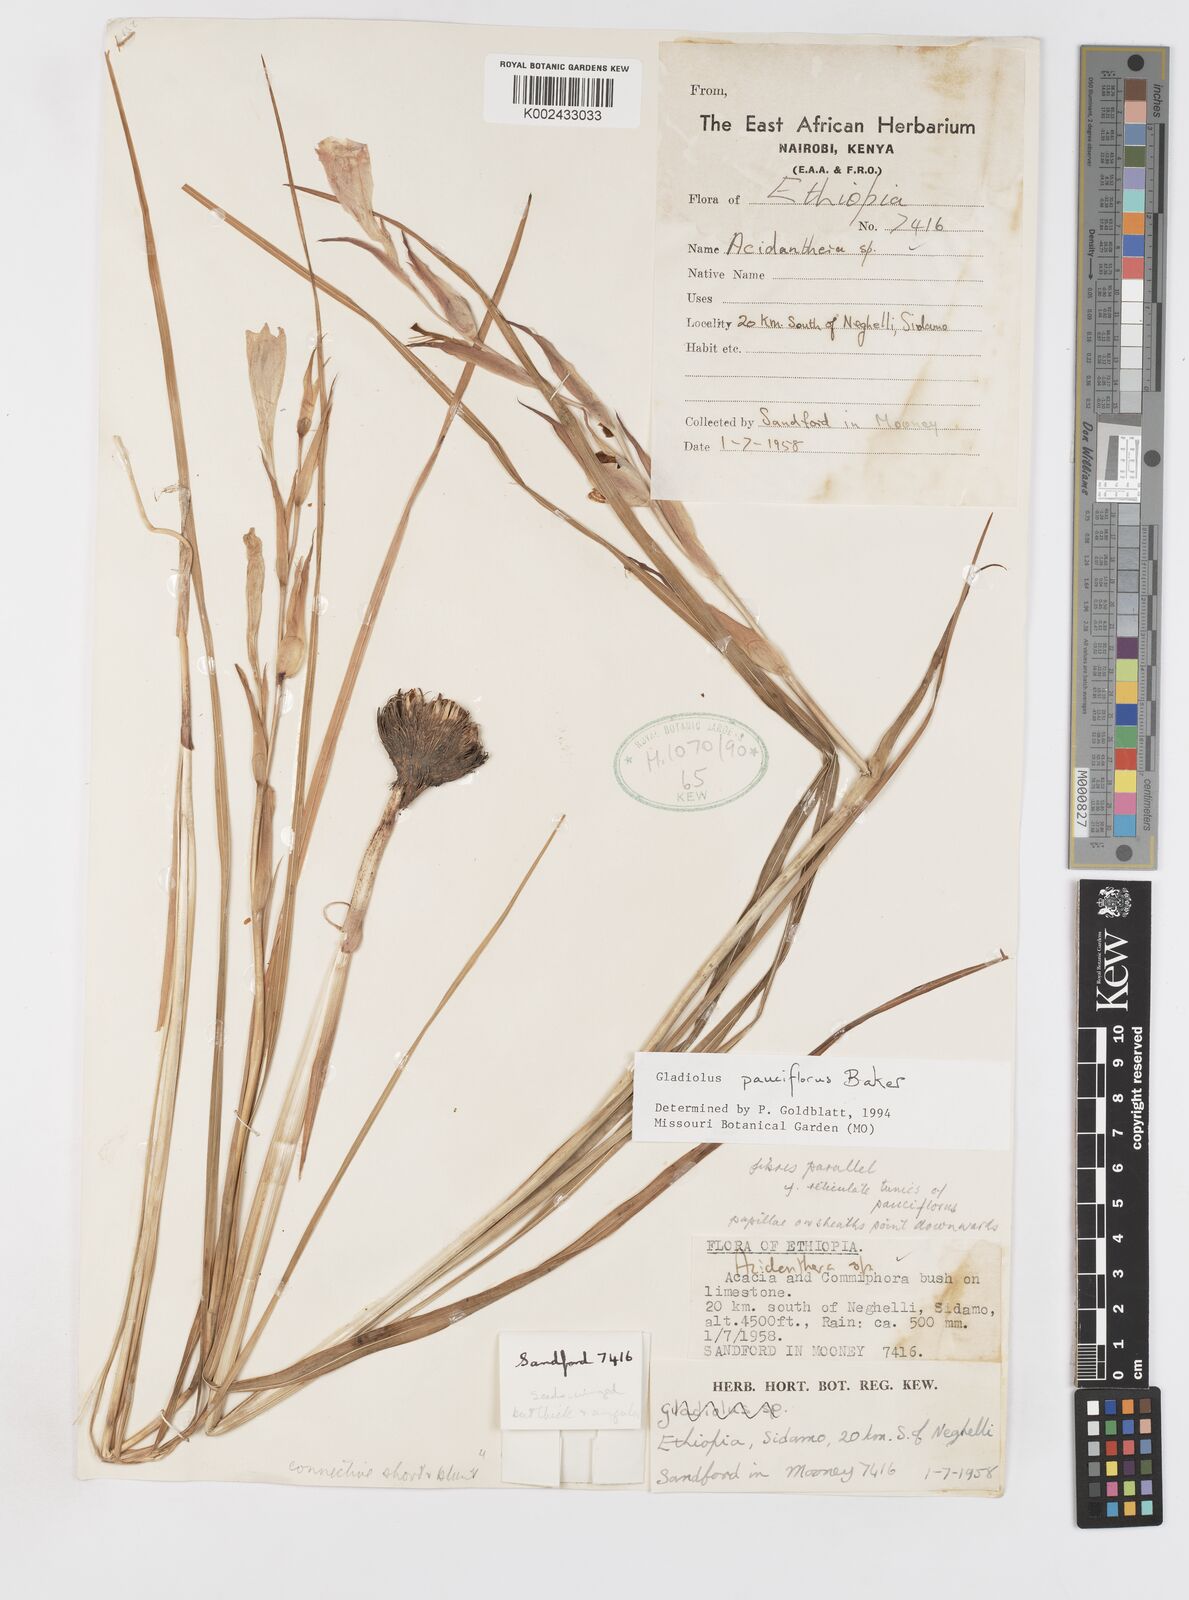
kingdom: Plantae
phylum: Tracheophyta
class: Liliopsida
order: Asparagales
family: Iridaceae
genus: Gladiolus
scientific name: Gladiolus pauciflorus
